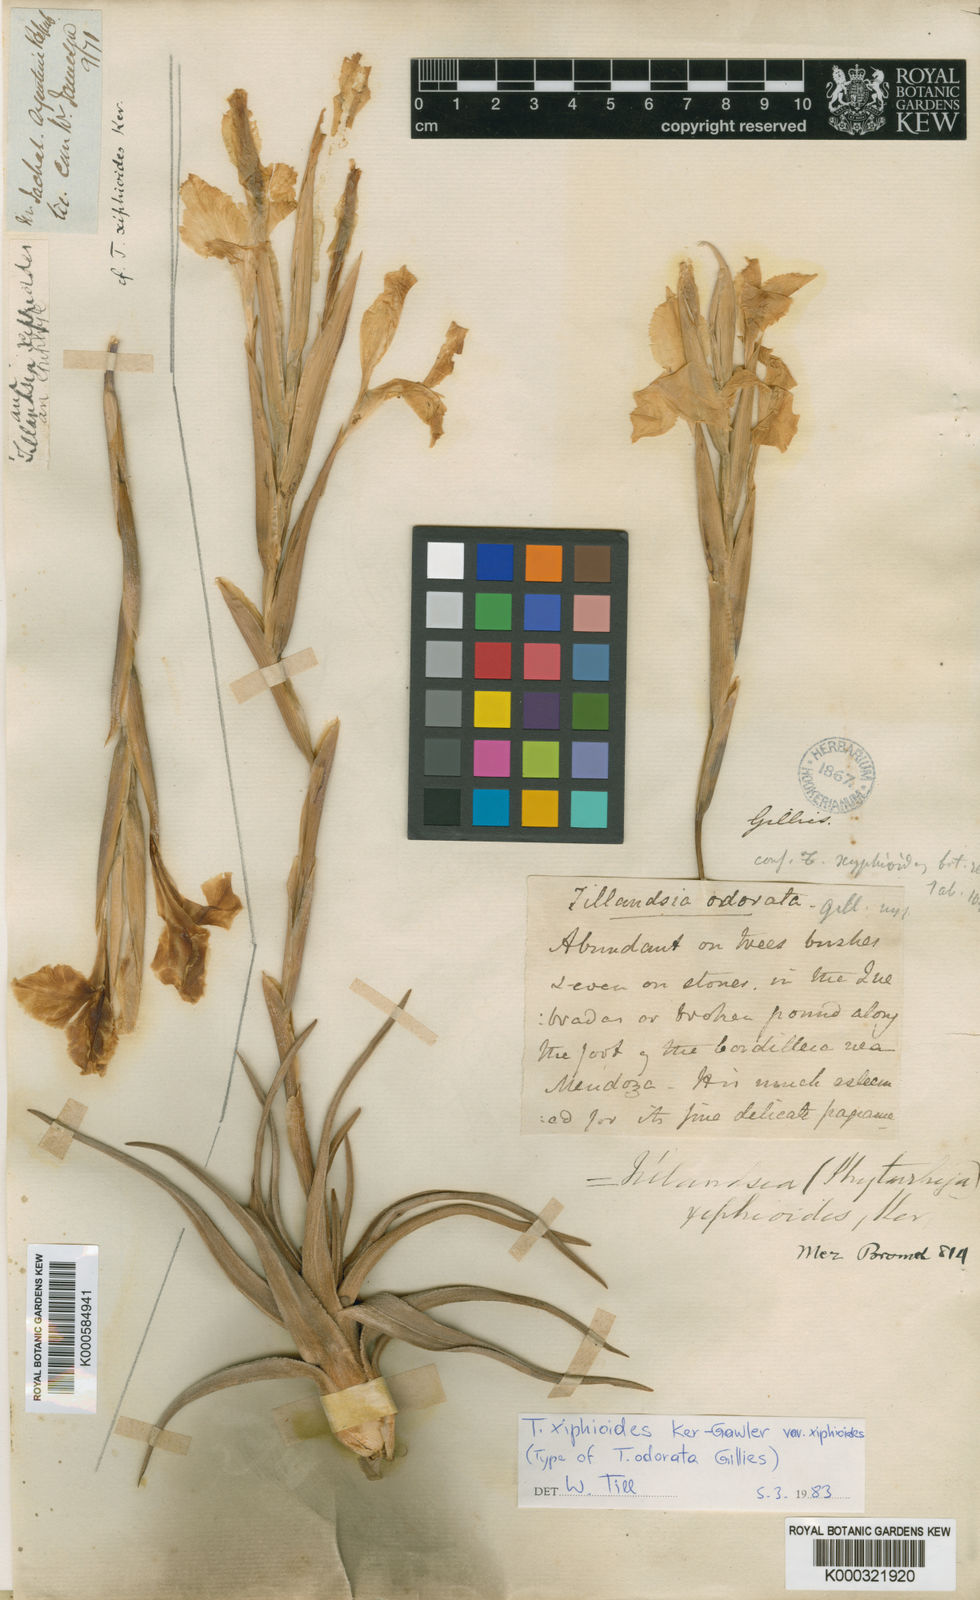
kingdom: Plantae
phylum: Tracheophyta
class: Liliopsida
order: Poales
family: Bromeliaceae
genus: Tillandsia
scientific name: Tillandsia xiphioides
